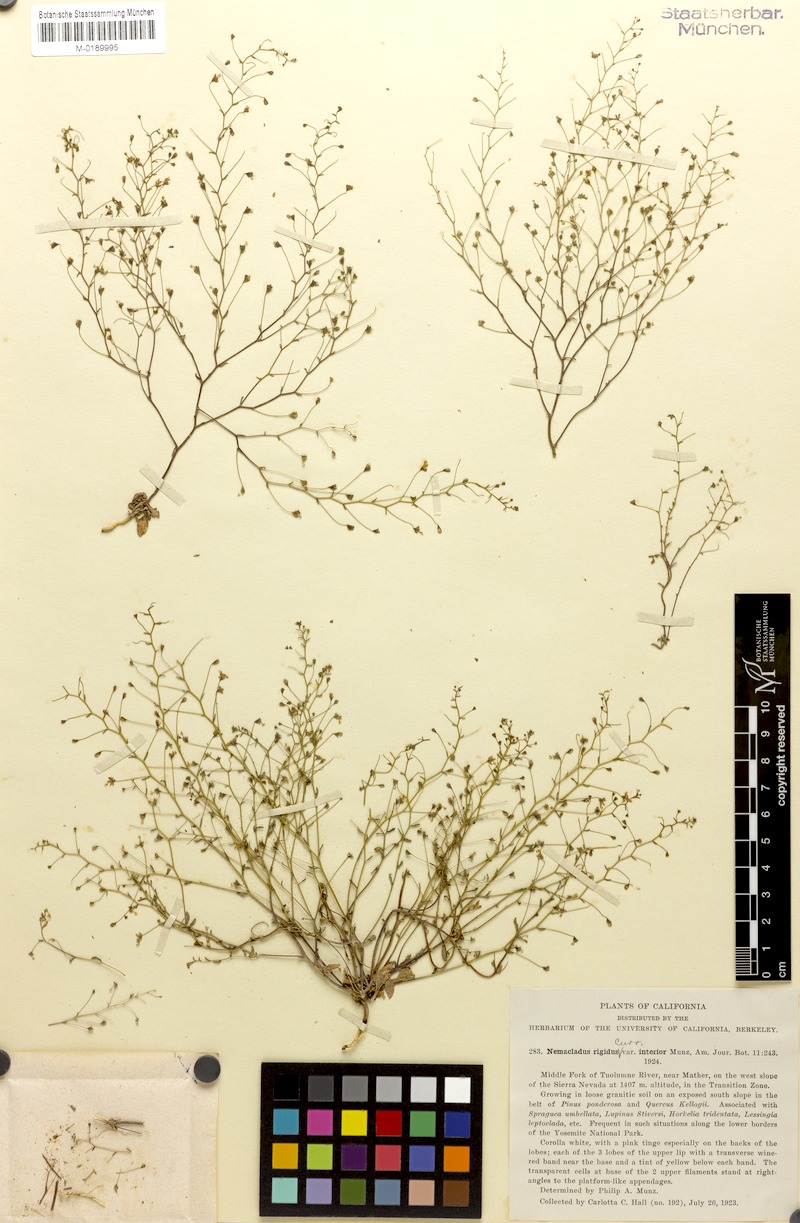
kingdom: Plantae
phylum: Tracheophyta
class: Magnoliopsida
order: Asterales
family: Campanulaceae
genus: Nemacladus
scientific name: Nemacladus interior
